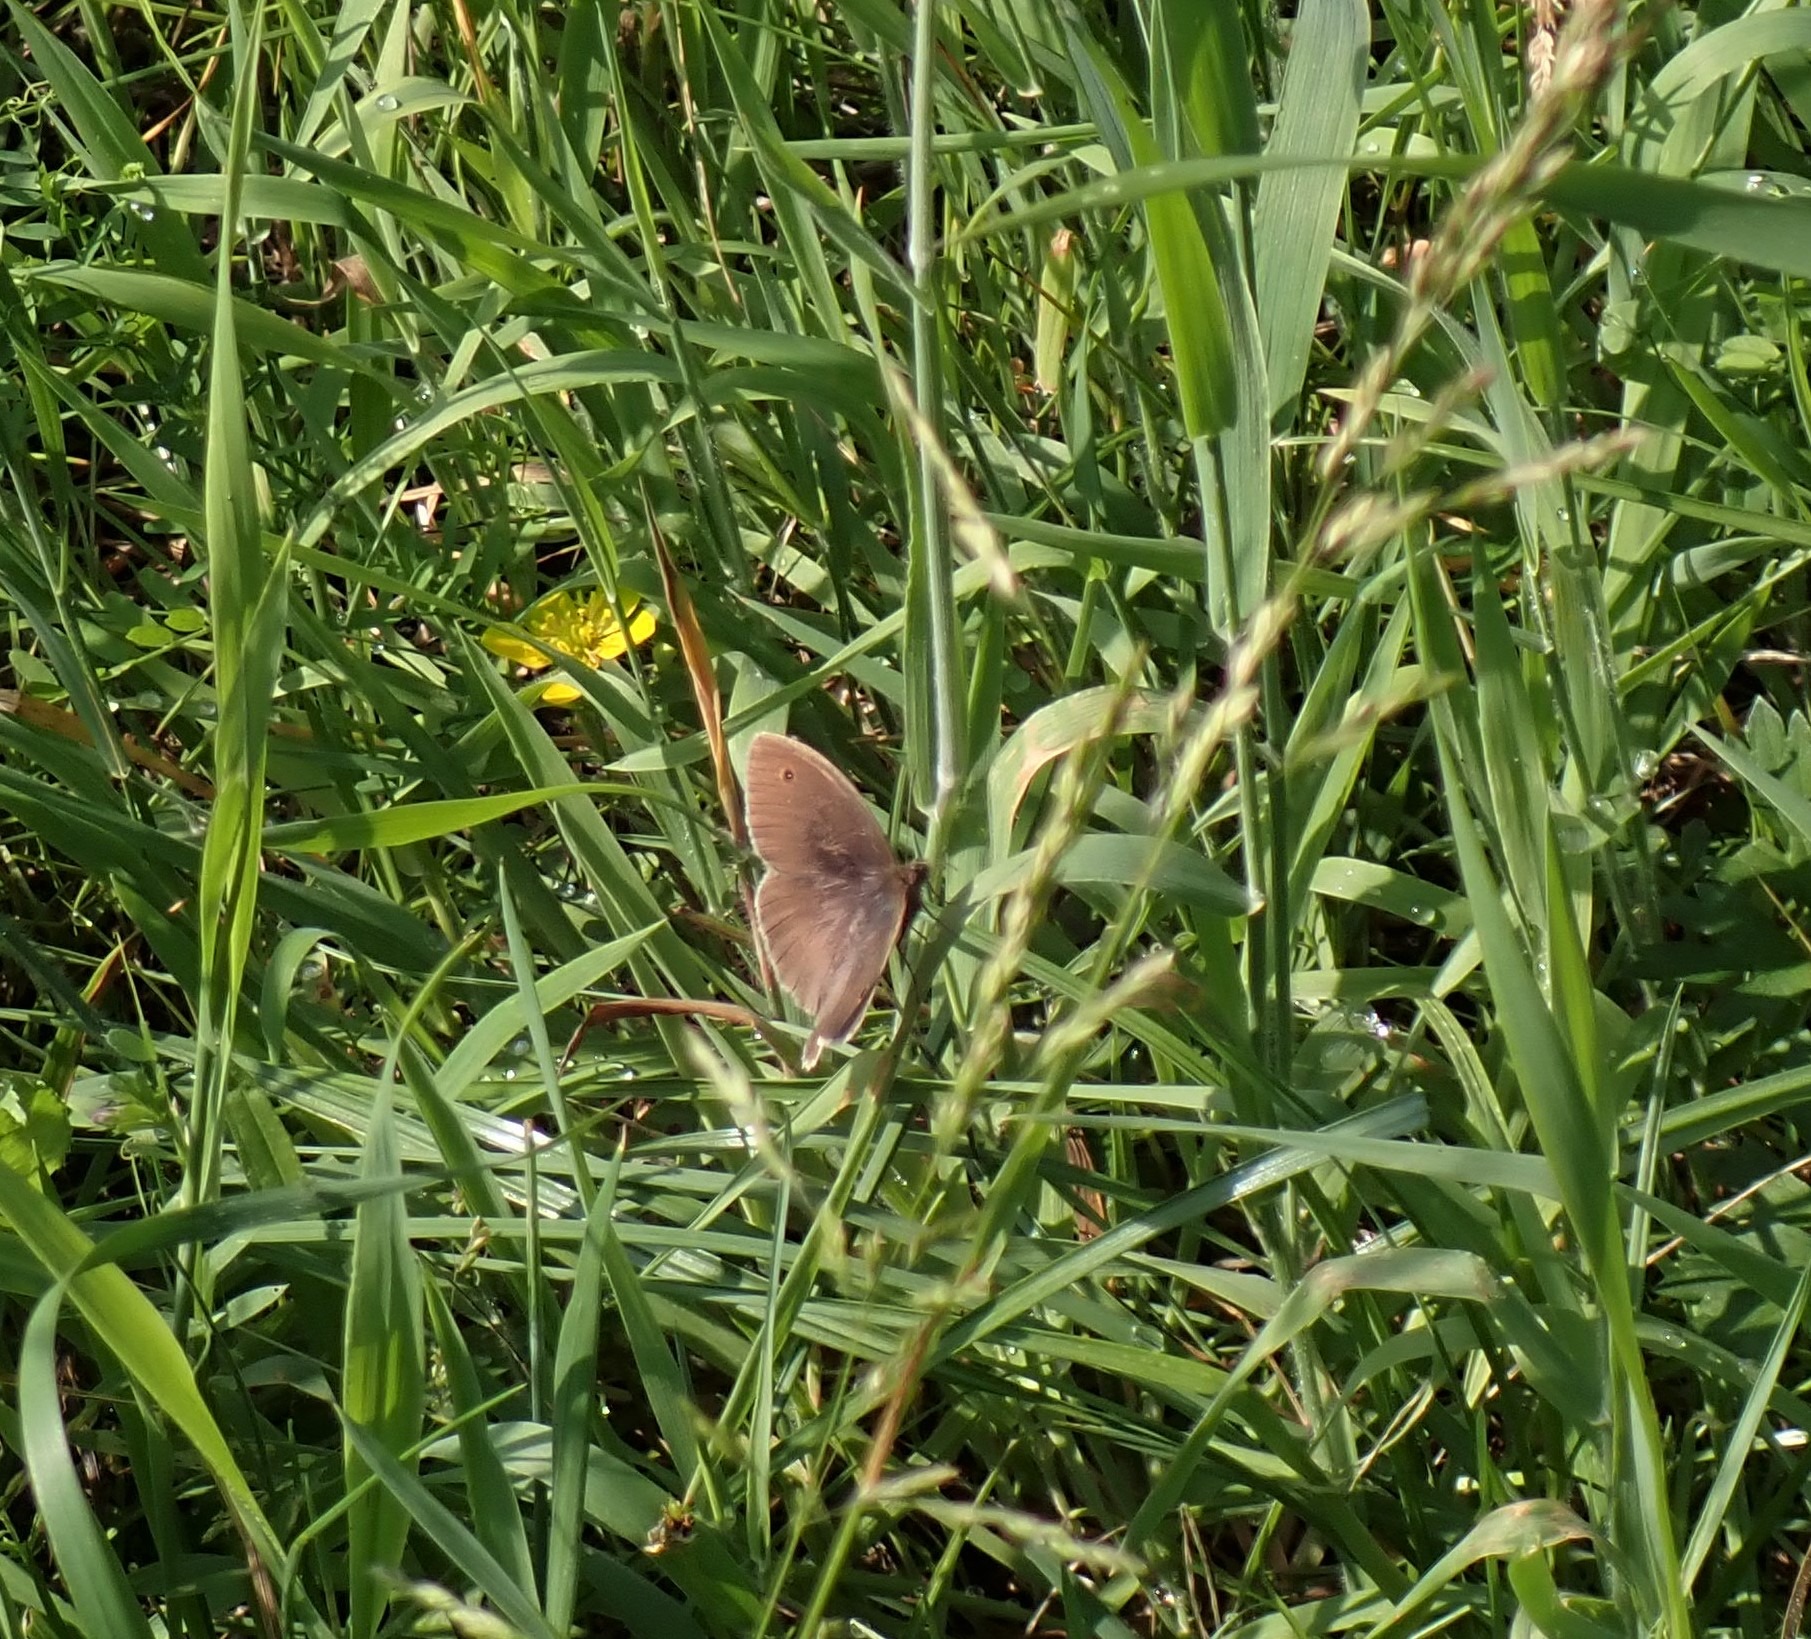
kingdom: Animalia
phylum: Arthropoda
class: Insecta
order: Lepidoptera
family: Nymphalidae
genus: Maniola
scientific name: Maniola jurtina
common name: Græsrandøje
